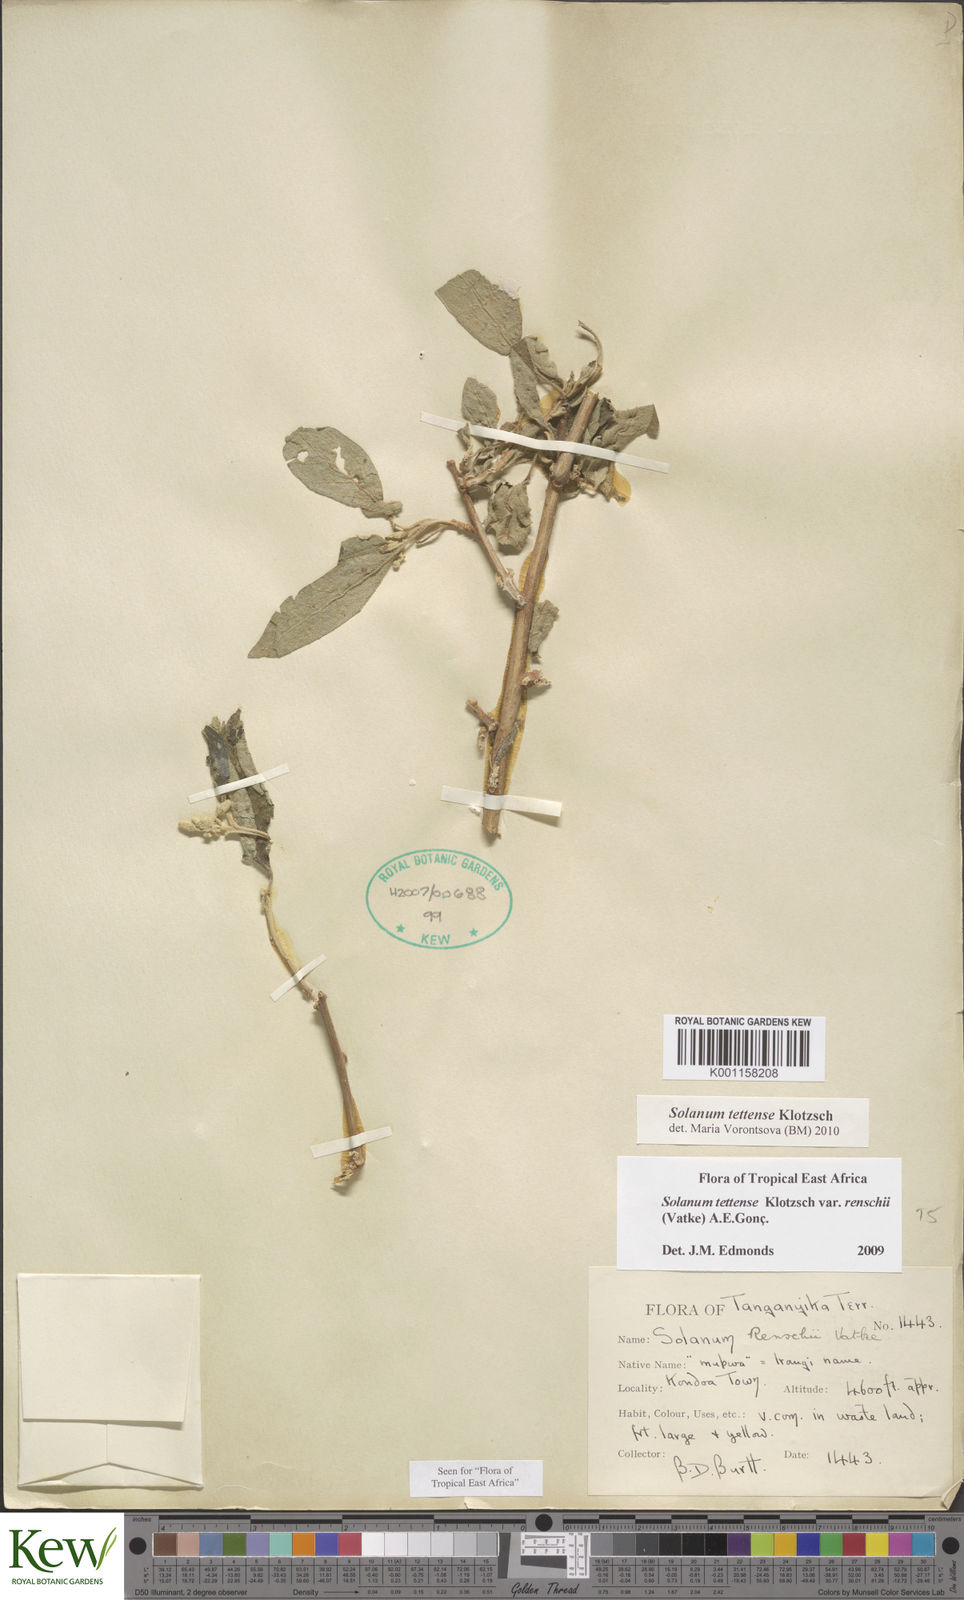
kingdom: Plantae
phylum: Tracheophyta
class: Magnoliopsida
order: Solanales
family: Solanaceae
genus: Solanum
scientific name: Solanum tettense
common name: Mozambique bitter apple
